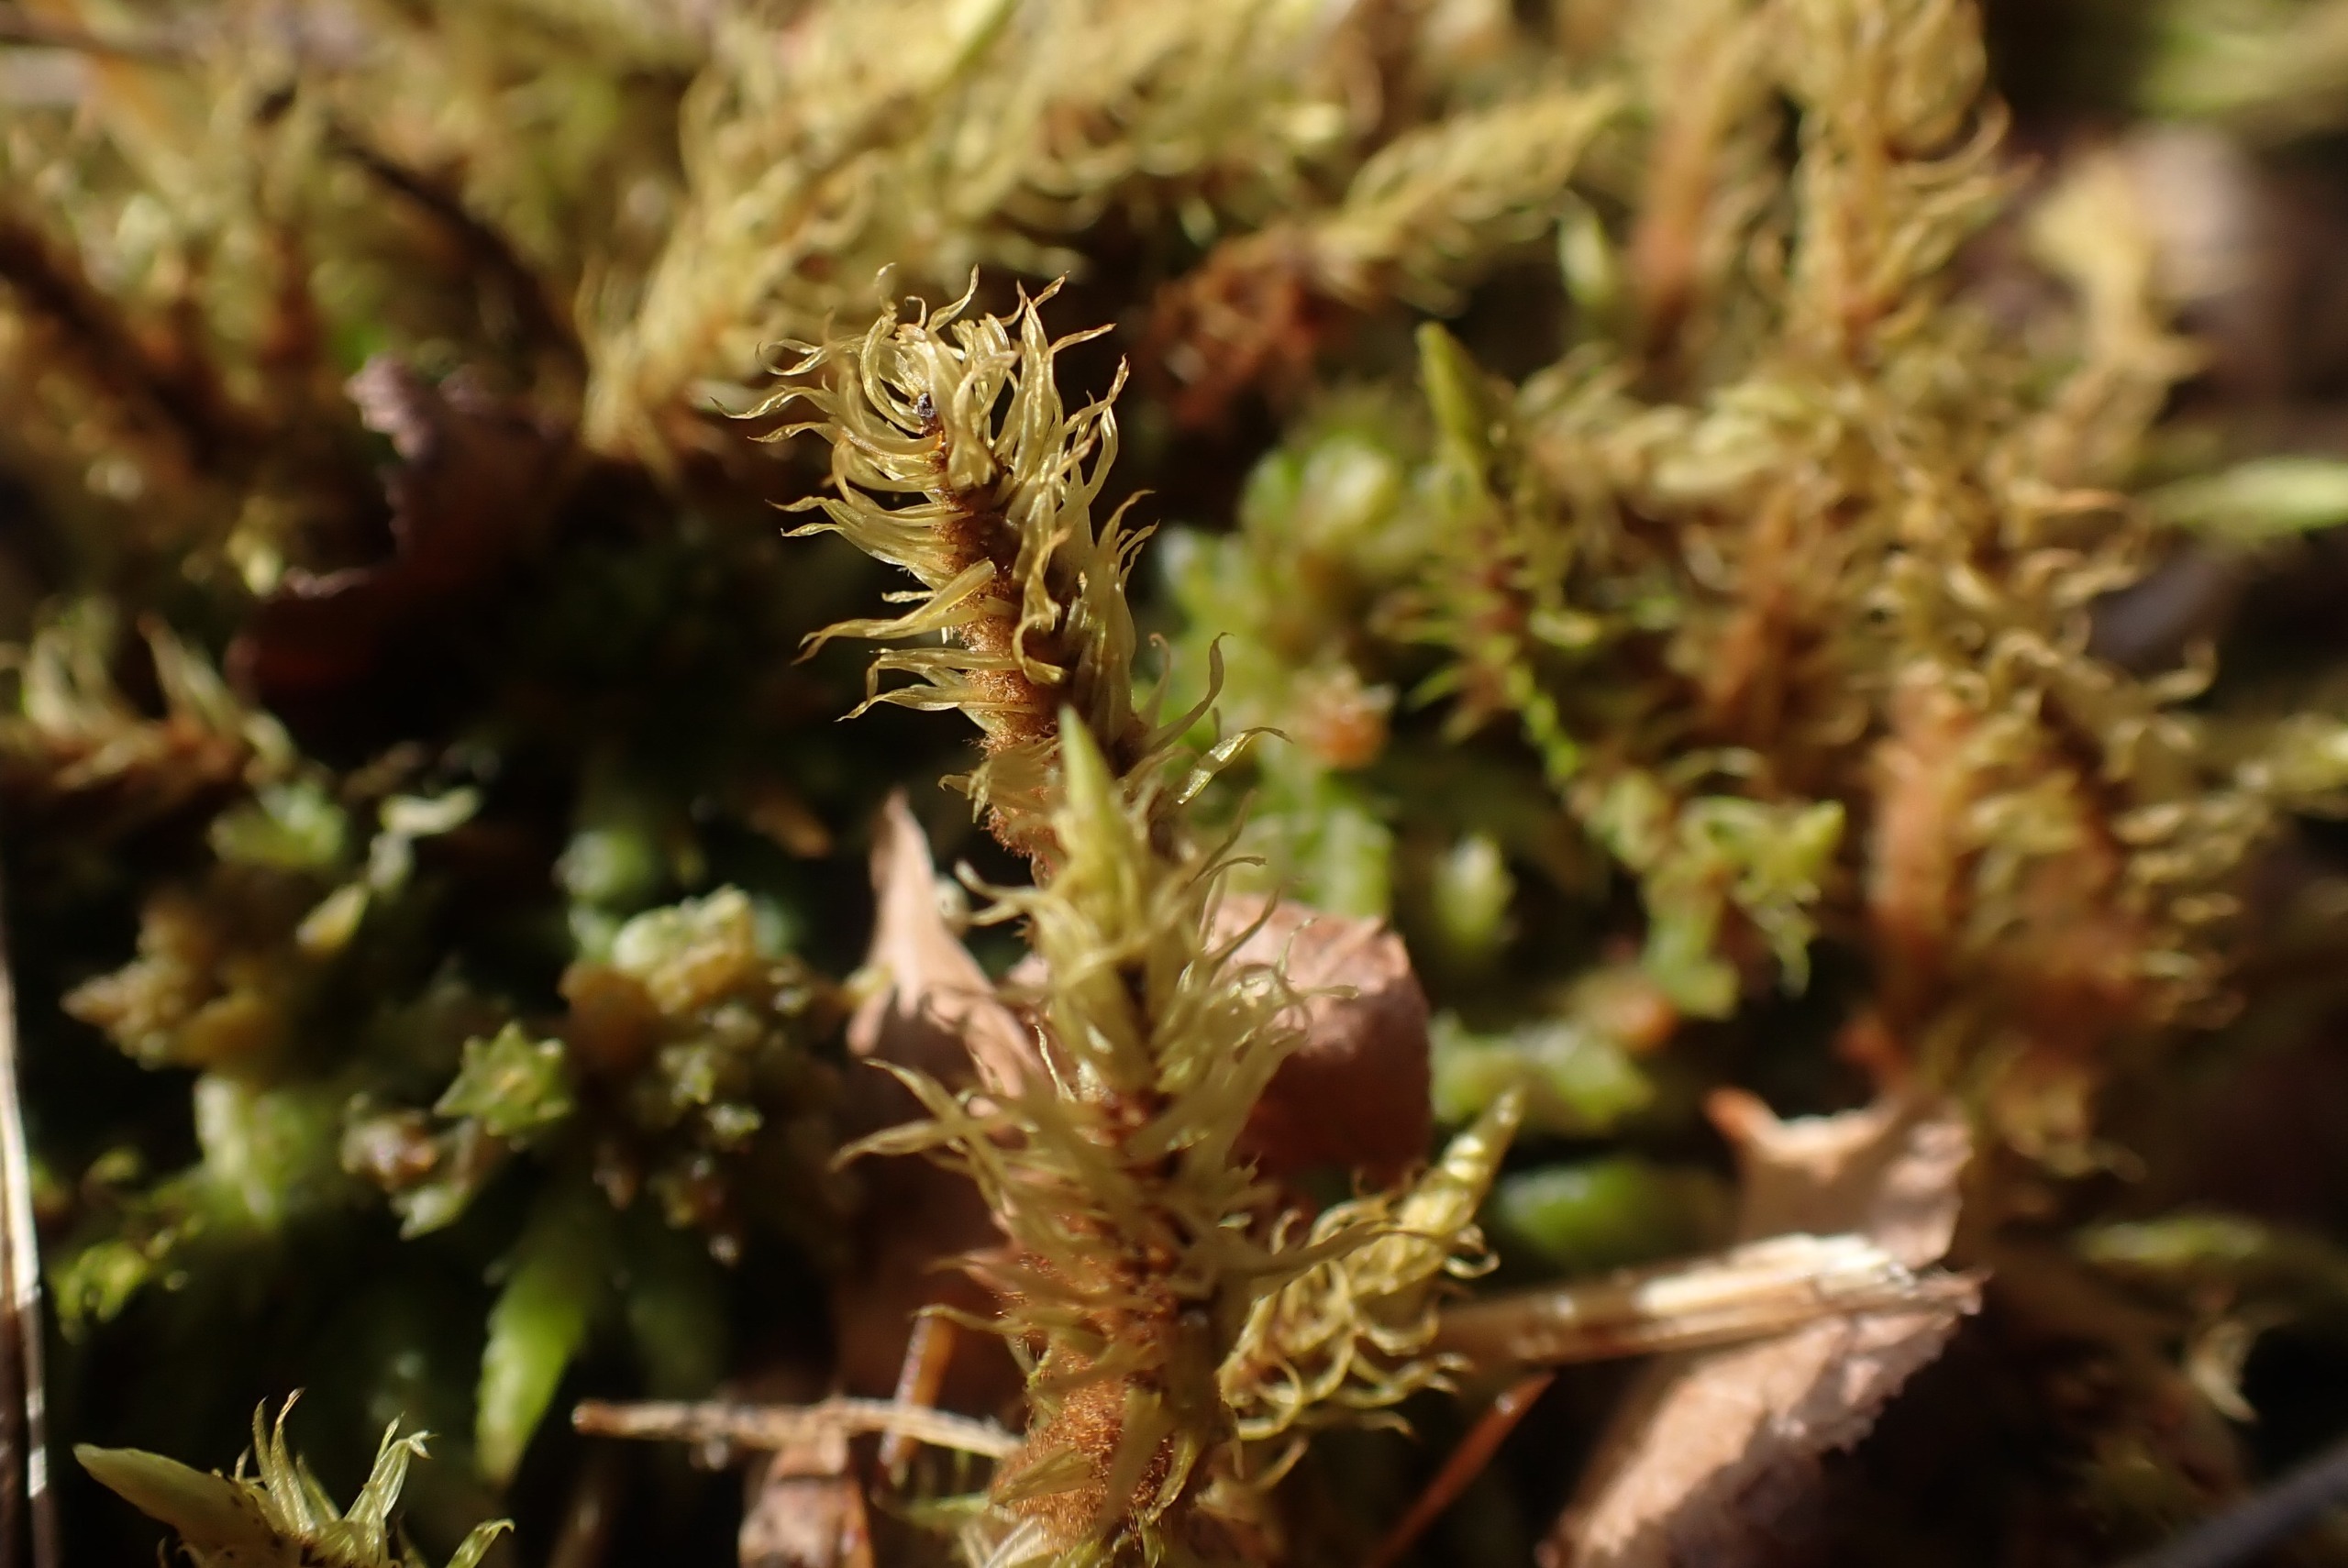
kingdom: Plantae
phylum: Bryophyta
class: Bryopsida
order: Aulacomniales
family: Aulacomniaceae
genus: Aulacomnium
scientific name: Aulacomnium palustre
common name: Almindelig filtmos
